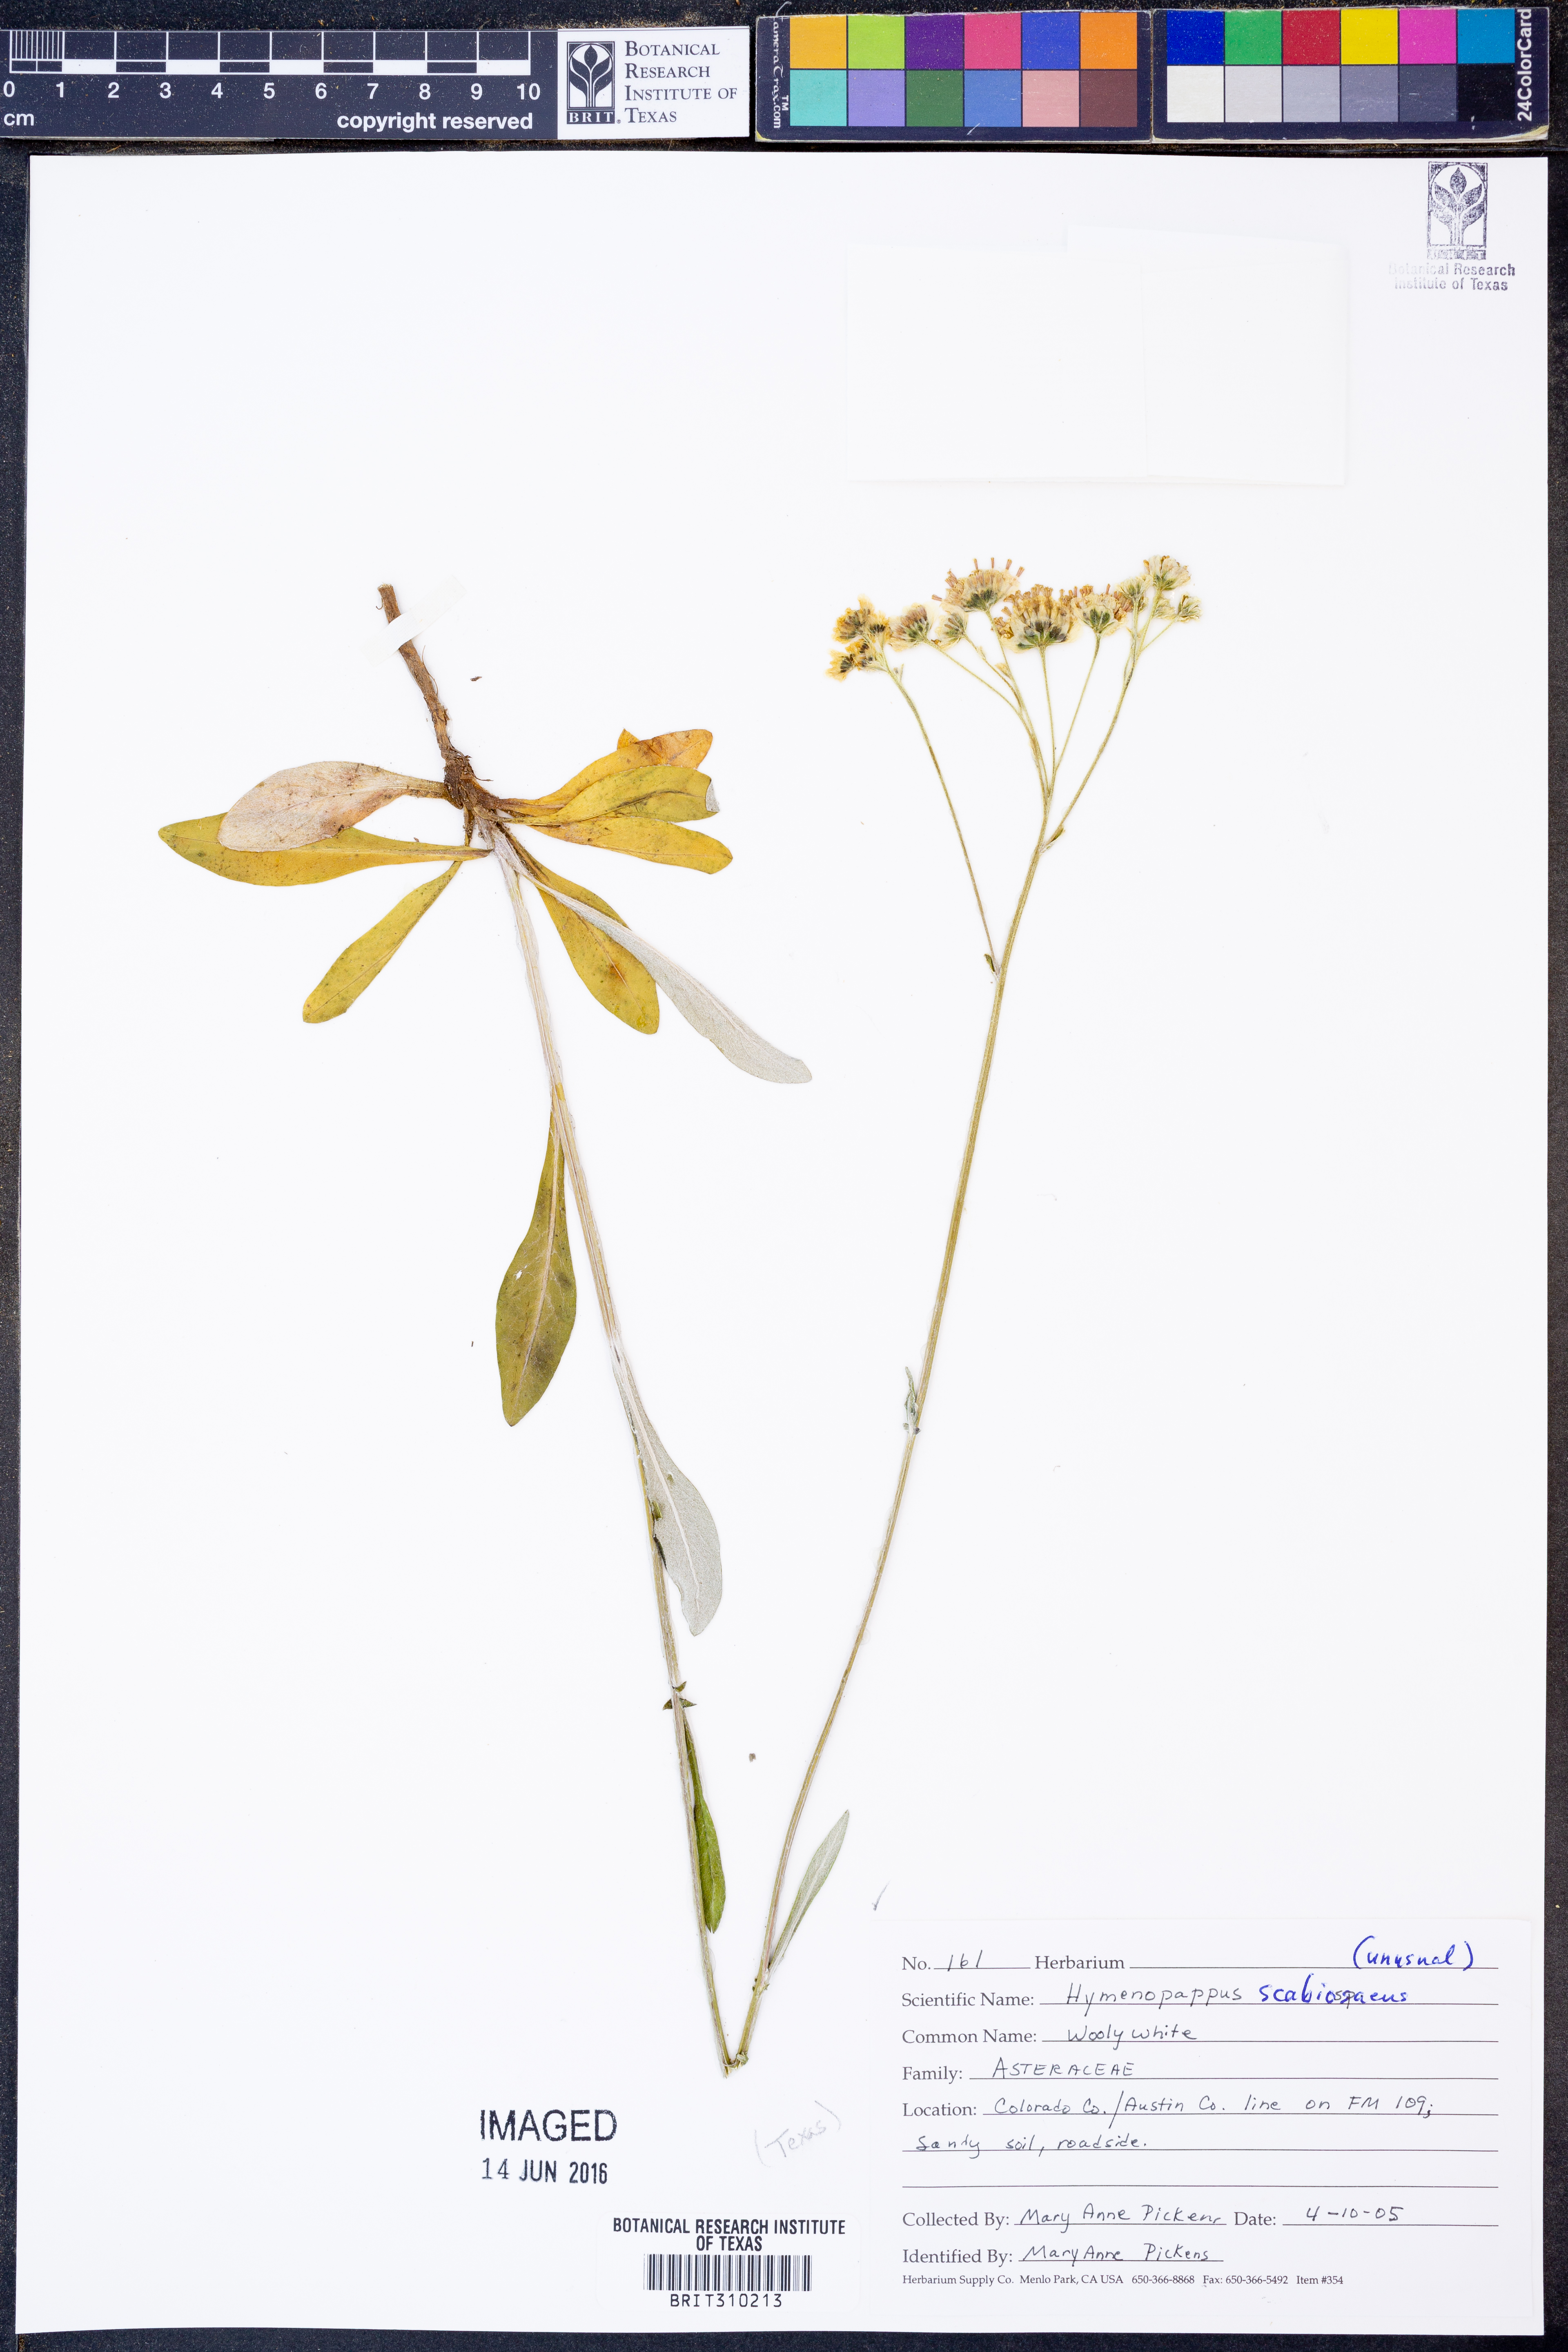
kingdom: Plantae
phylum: Tracheophyta
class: Magnoliopsida
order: Asterales
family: Asteraceae
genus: Hymenopappus
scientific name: Hymenopappus scabiosaeus
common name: Carolina woollywhite
